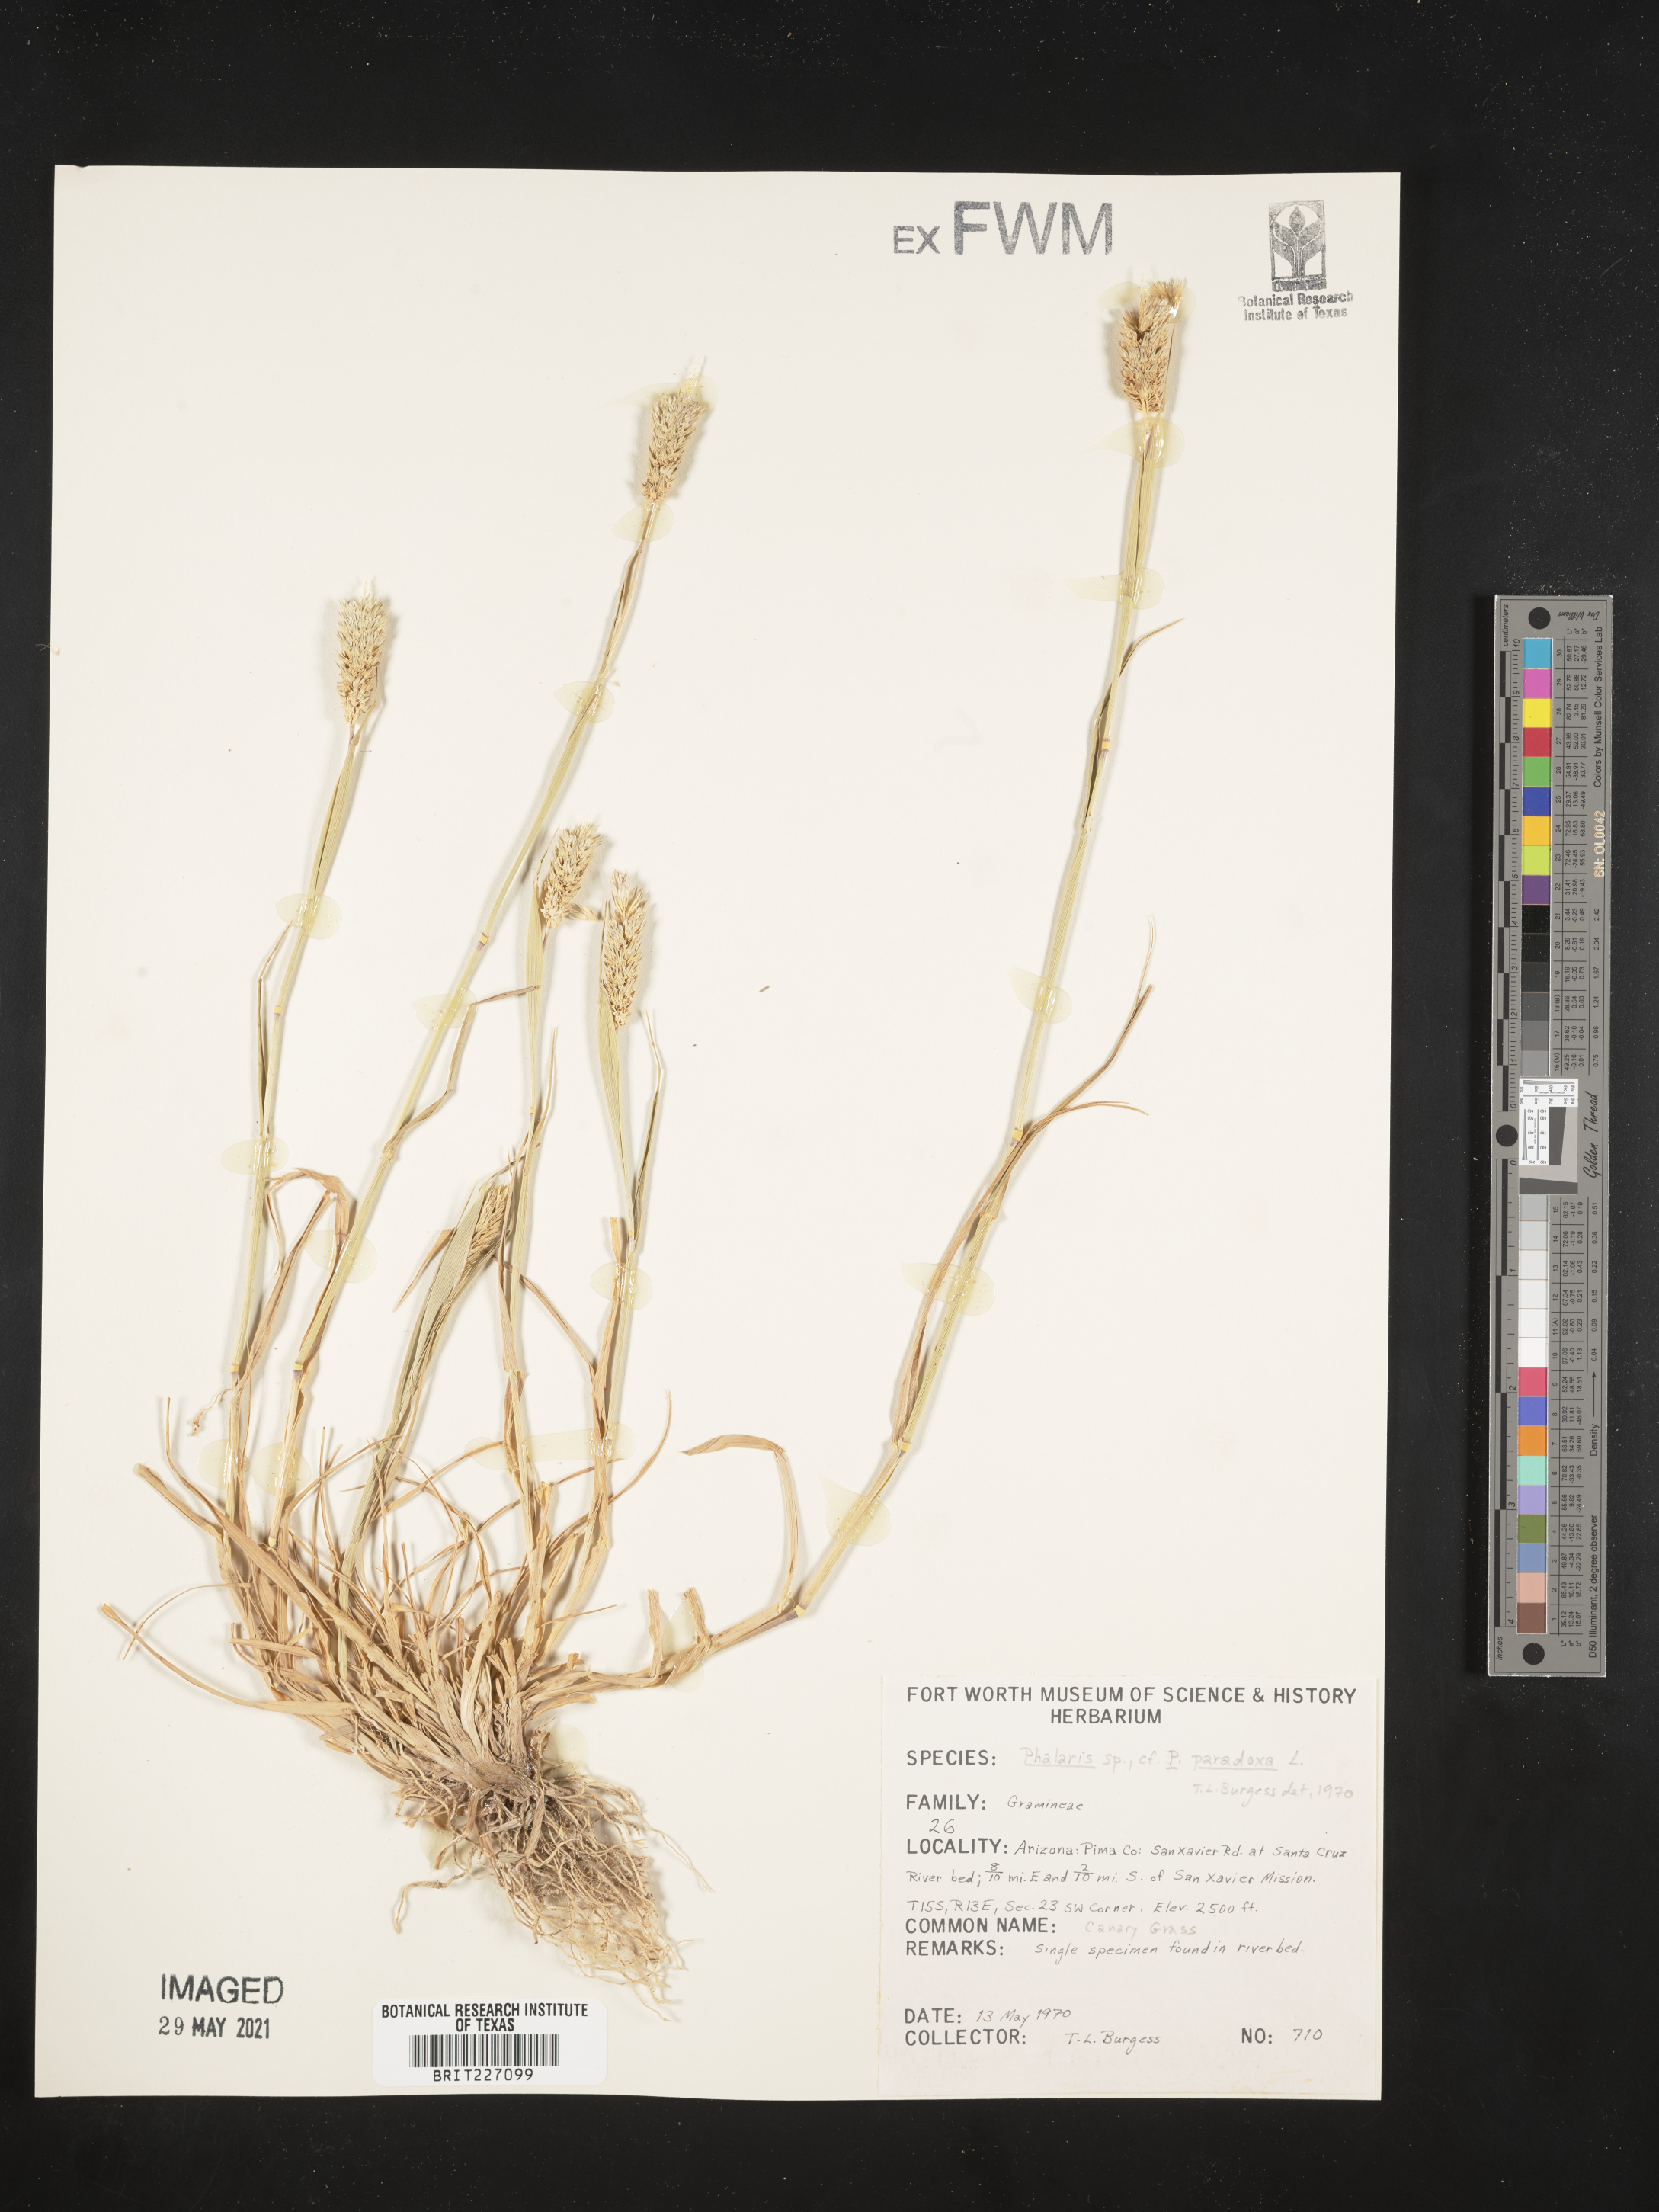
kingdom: Plantae
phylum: Tracheophyta
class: Liliopsida
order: Poales
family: Poaceae
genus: Phalaris
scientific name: Phalaris paradoxa
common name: Awned canary-grass
